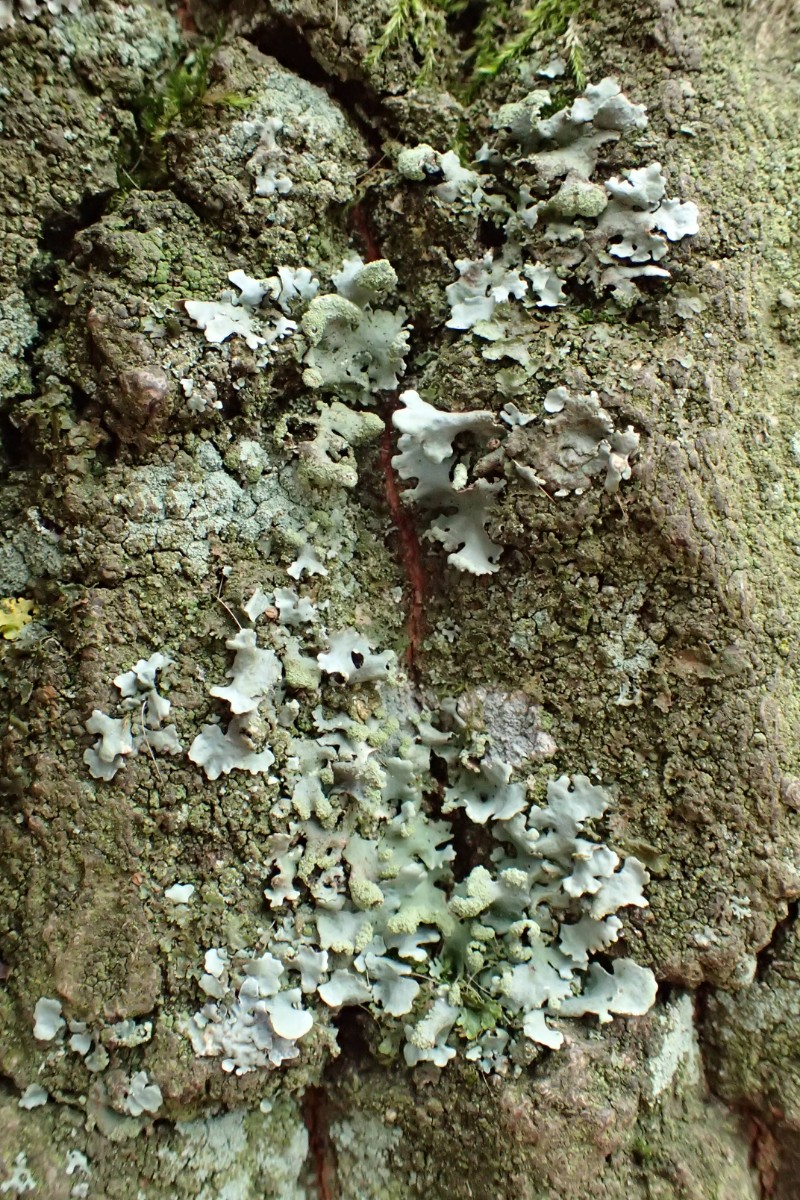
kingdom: Fungi
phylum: Ascomycota
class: Lecanoromycetes
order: Lecanorales
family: Parmeliaceae
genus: Hypotrachyna
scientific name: Hypotrachyna revoluta
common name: bleggrå skållav
